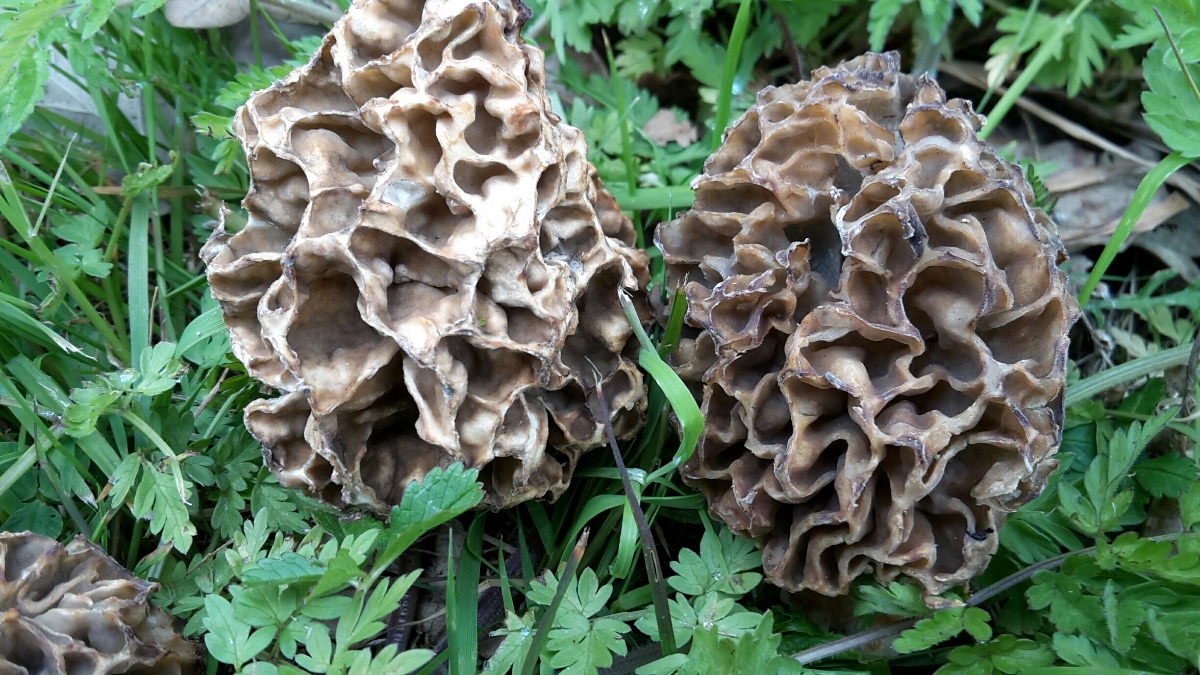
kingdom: Fungi
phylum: Ascomycota
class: Pezizomycetes
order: Pezizales
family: Morchellaceae
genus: Morchella
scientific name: Morchella esculenta
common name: almindelig morkel
